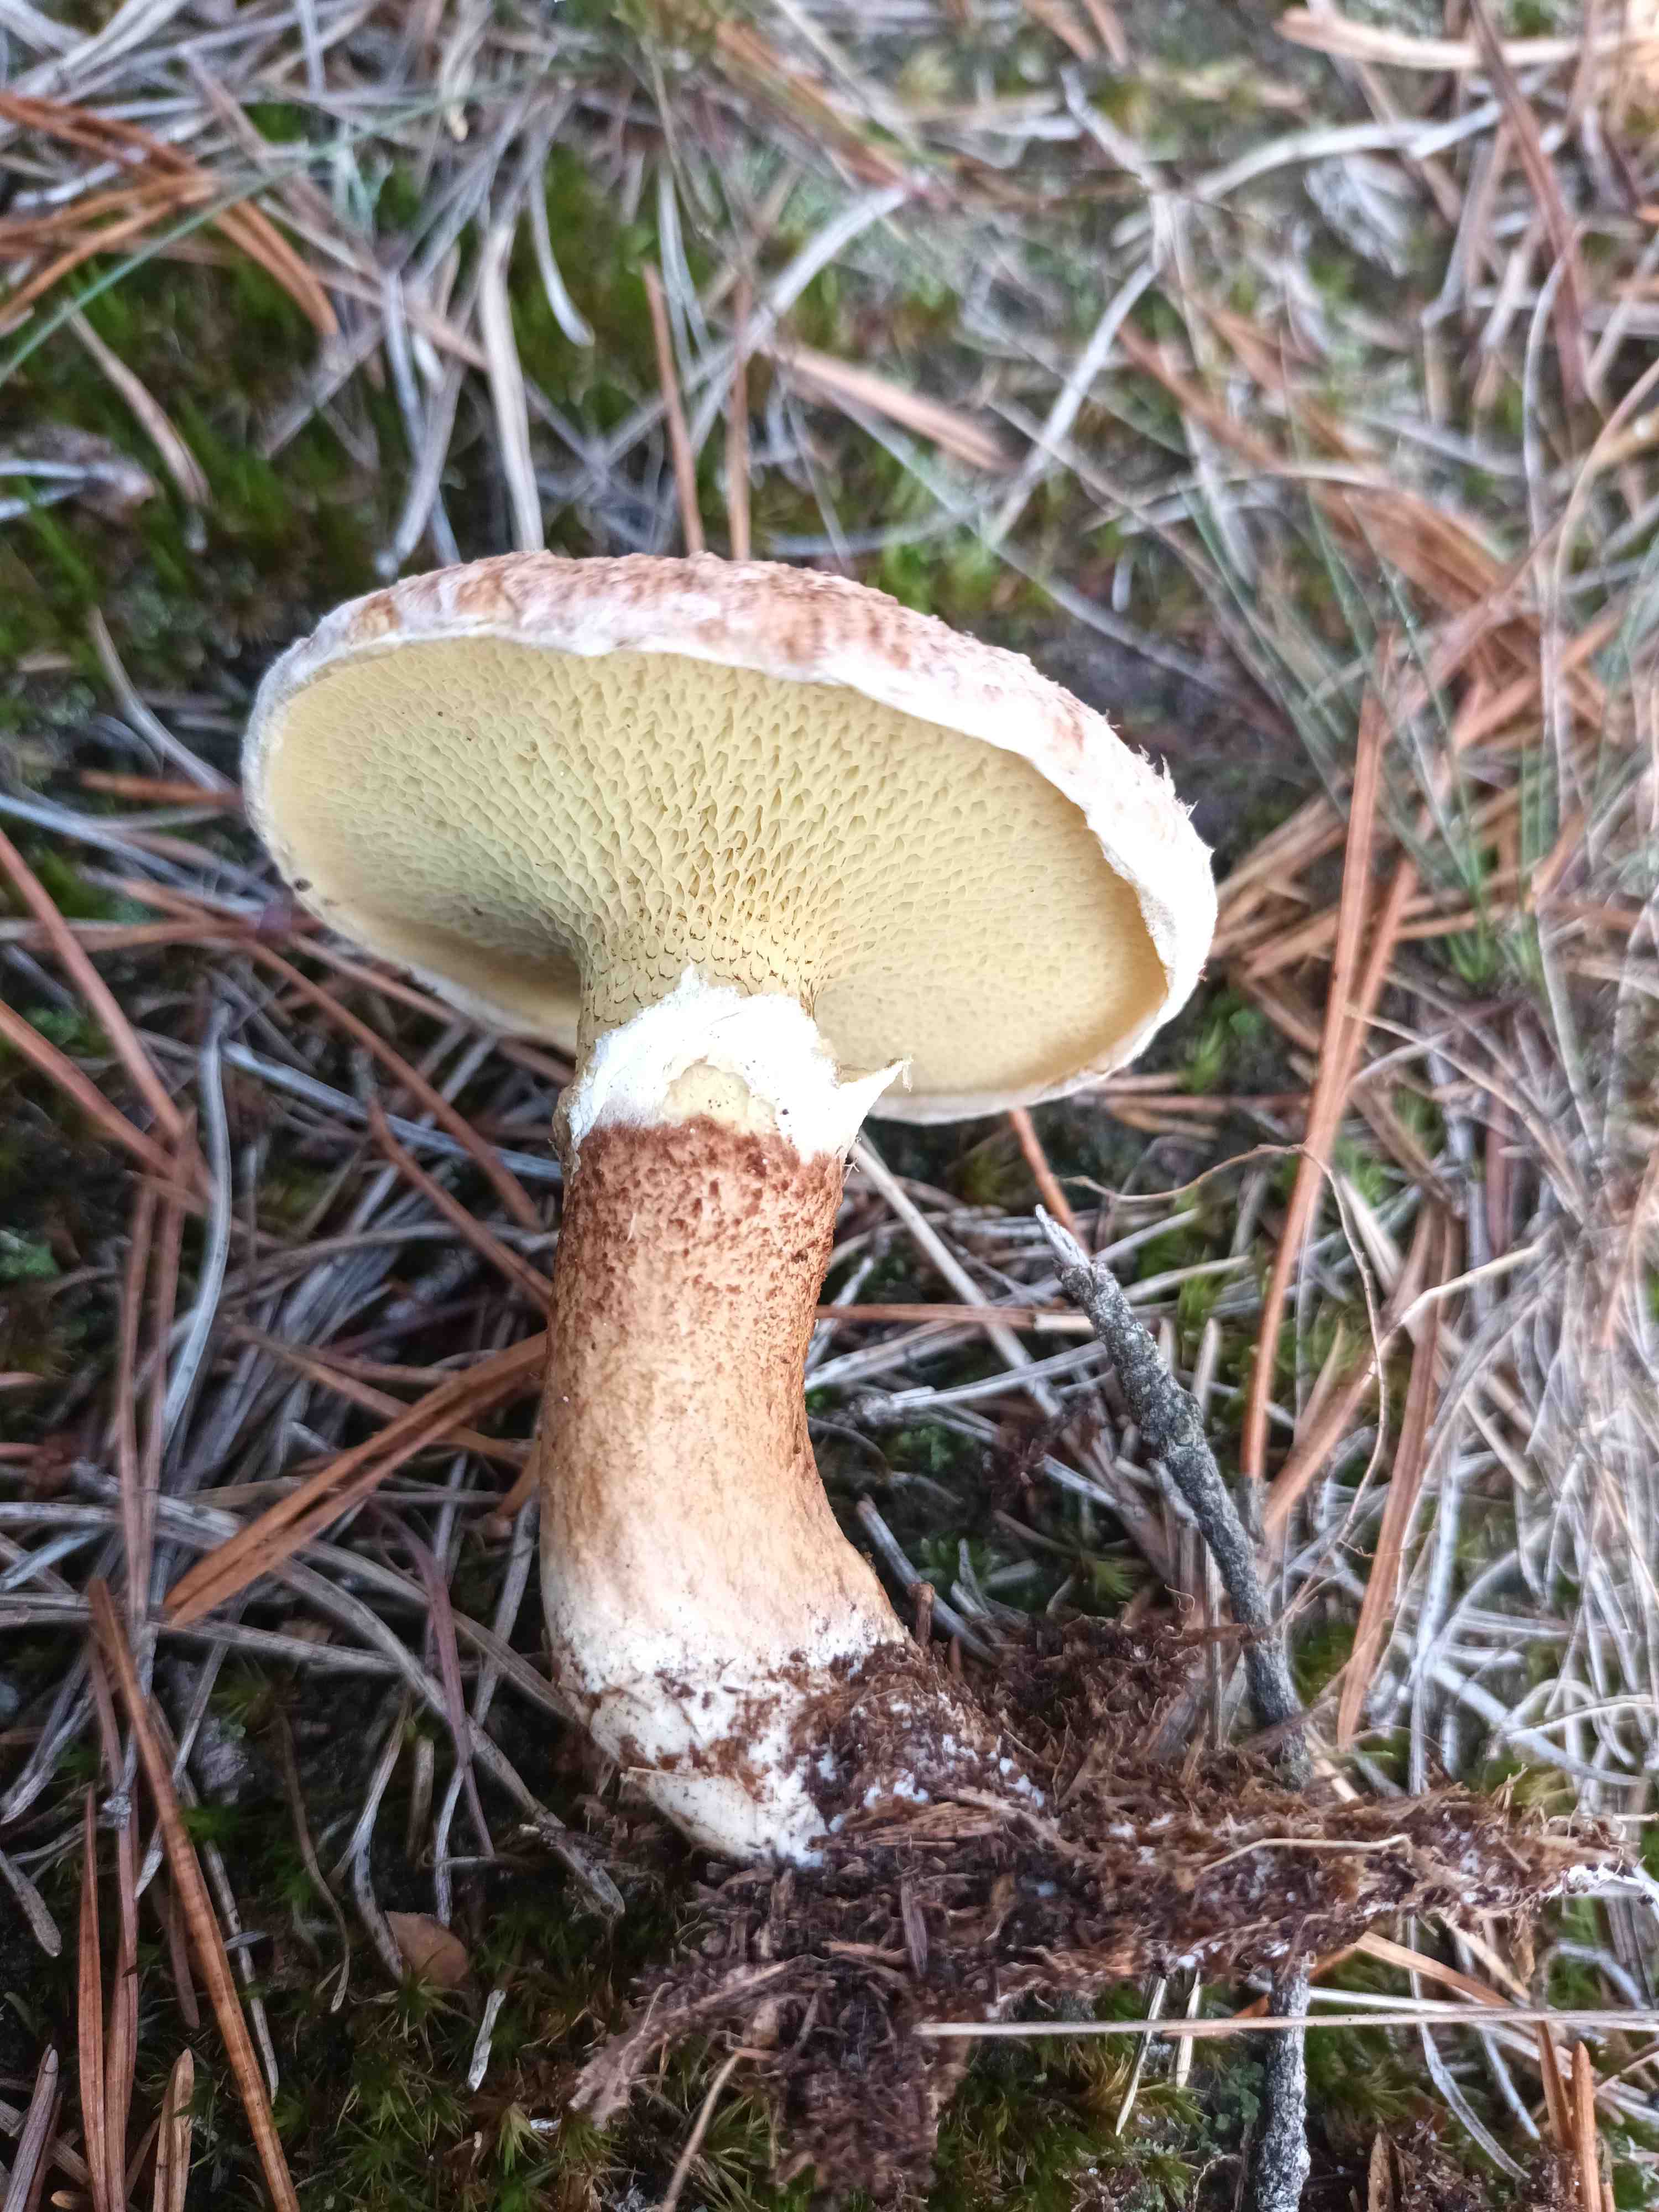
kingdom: Fungi
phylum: Basidiomycota
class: Agaricomycetes
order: Boletales
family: Suillaceae
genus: Suillus
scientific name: Suillus cavipes
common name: hulstokket slimrørhat
